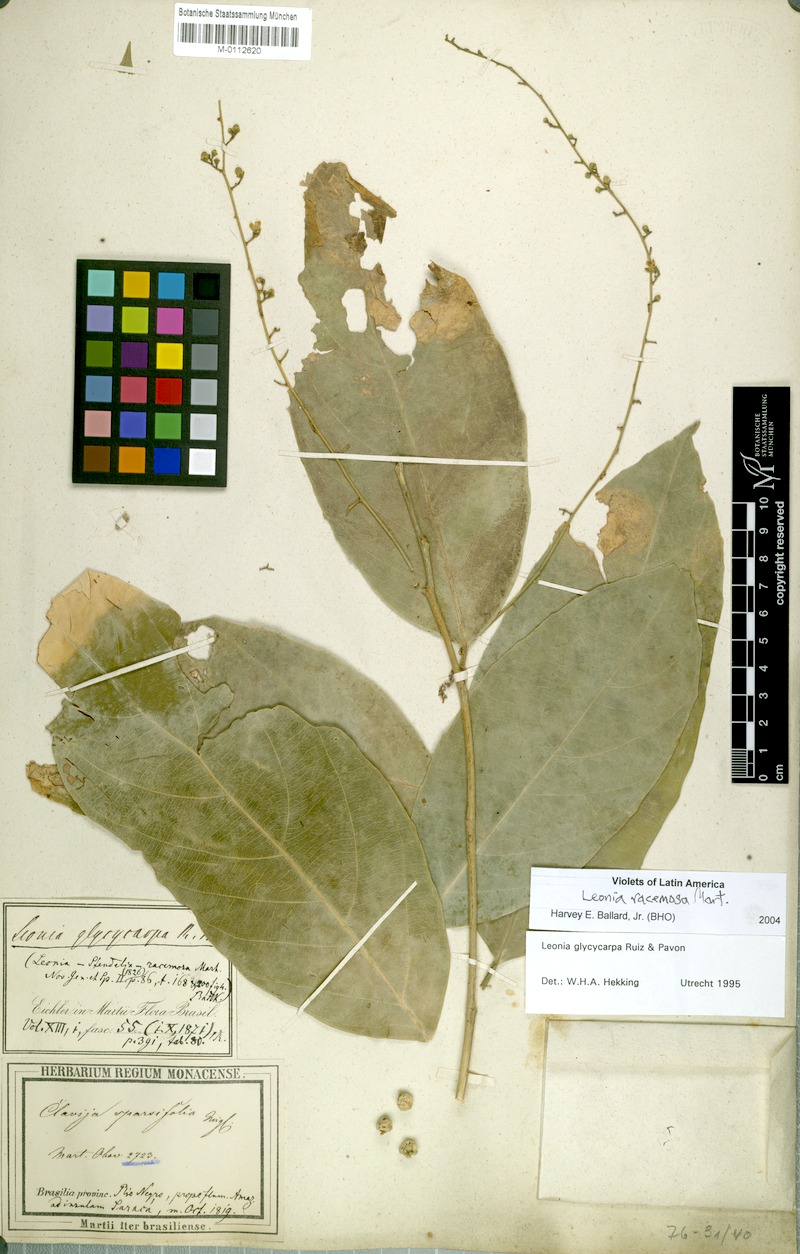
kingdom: Plantae
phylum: Tracheophyta
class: Magnoliopsida
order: Malpighiales
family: Violaceae
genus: Leonia
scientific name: Leonia racemosa
